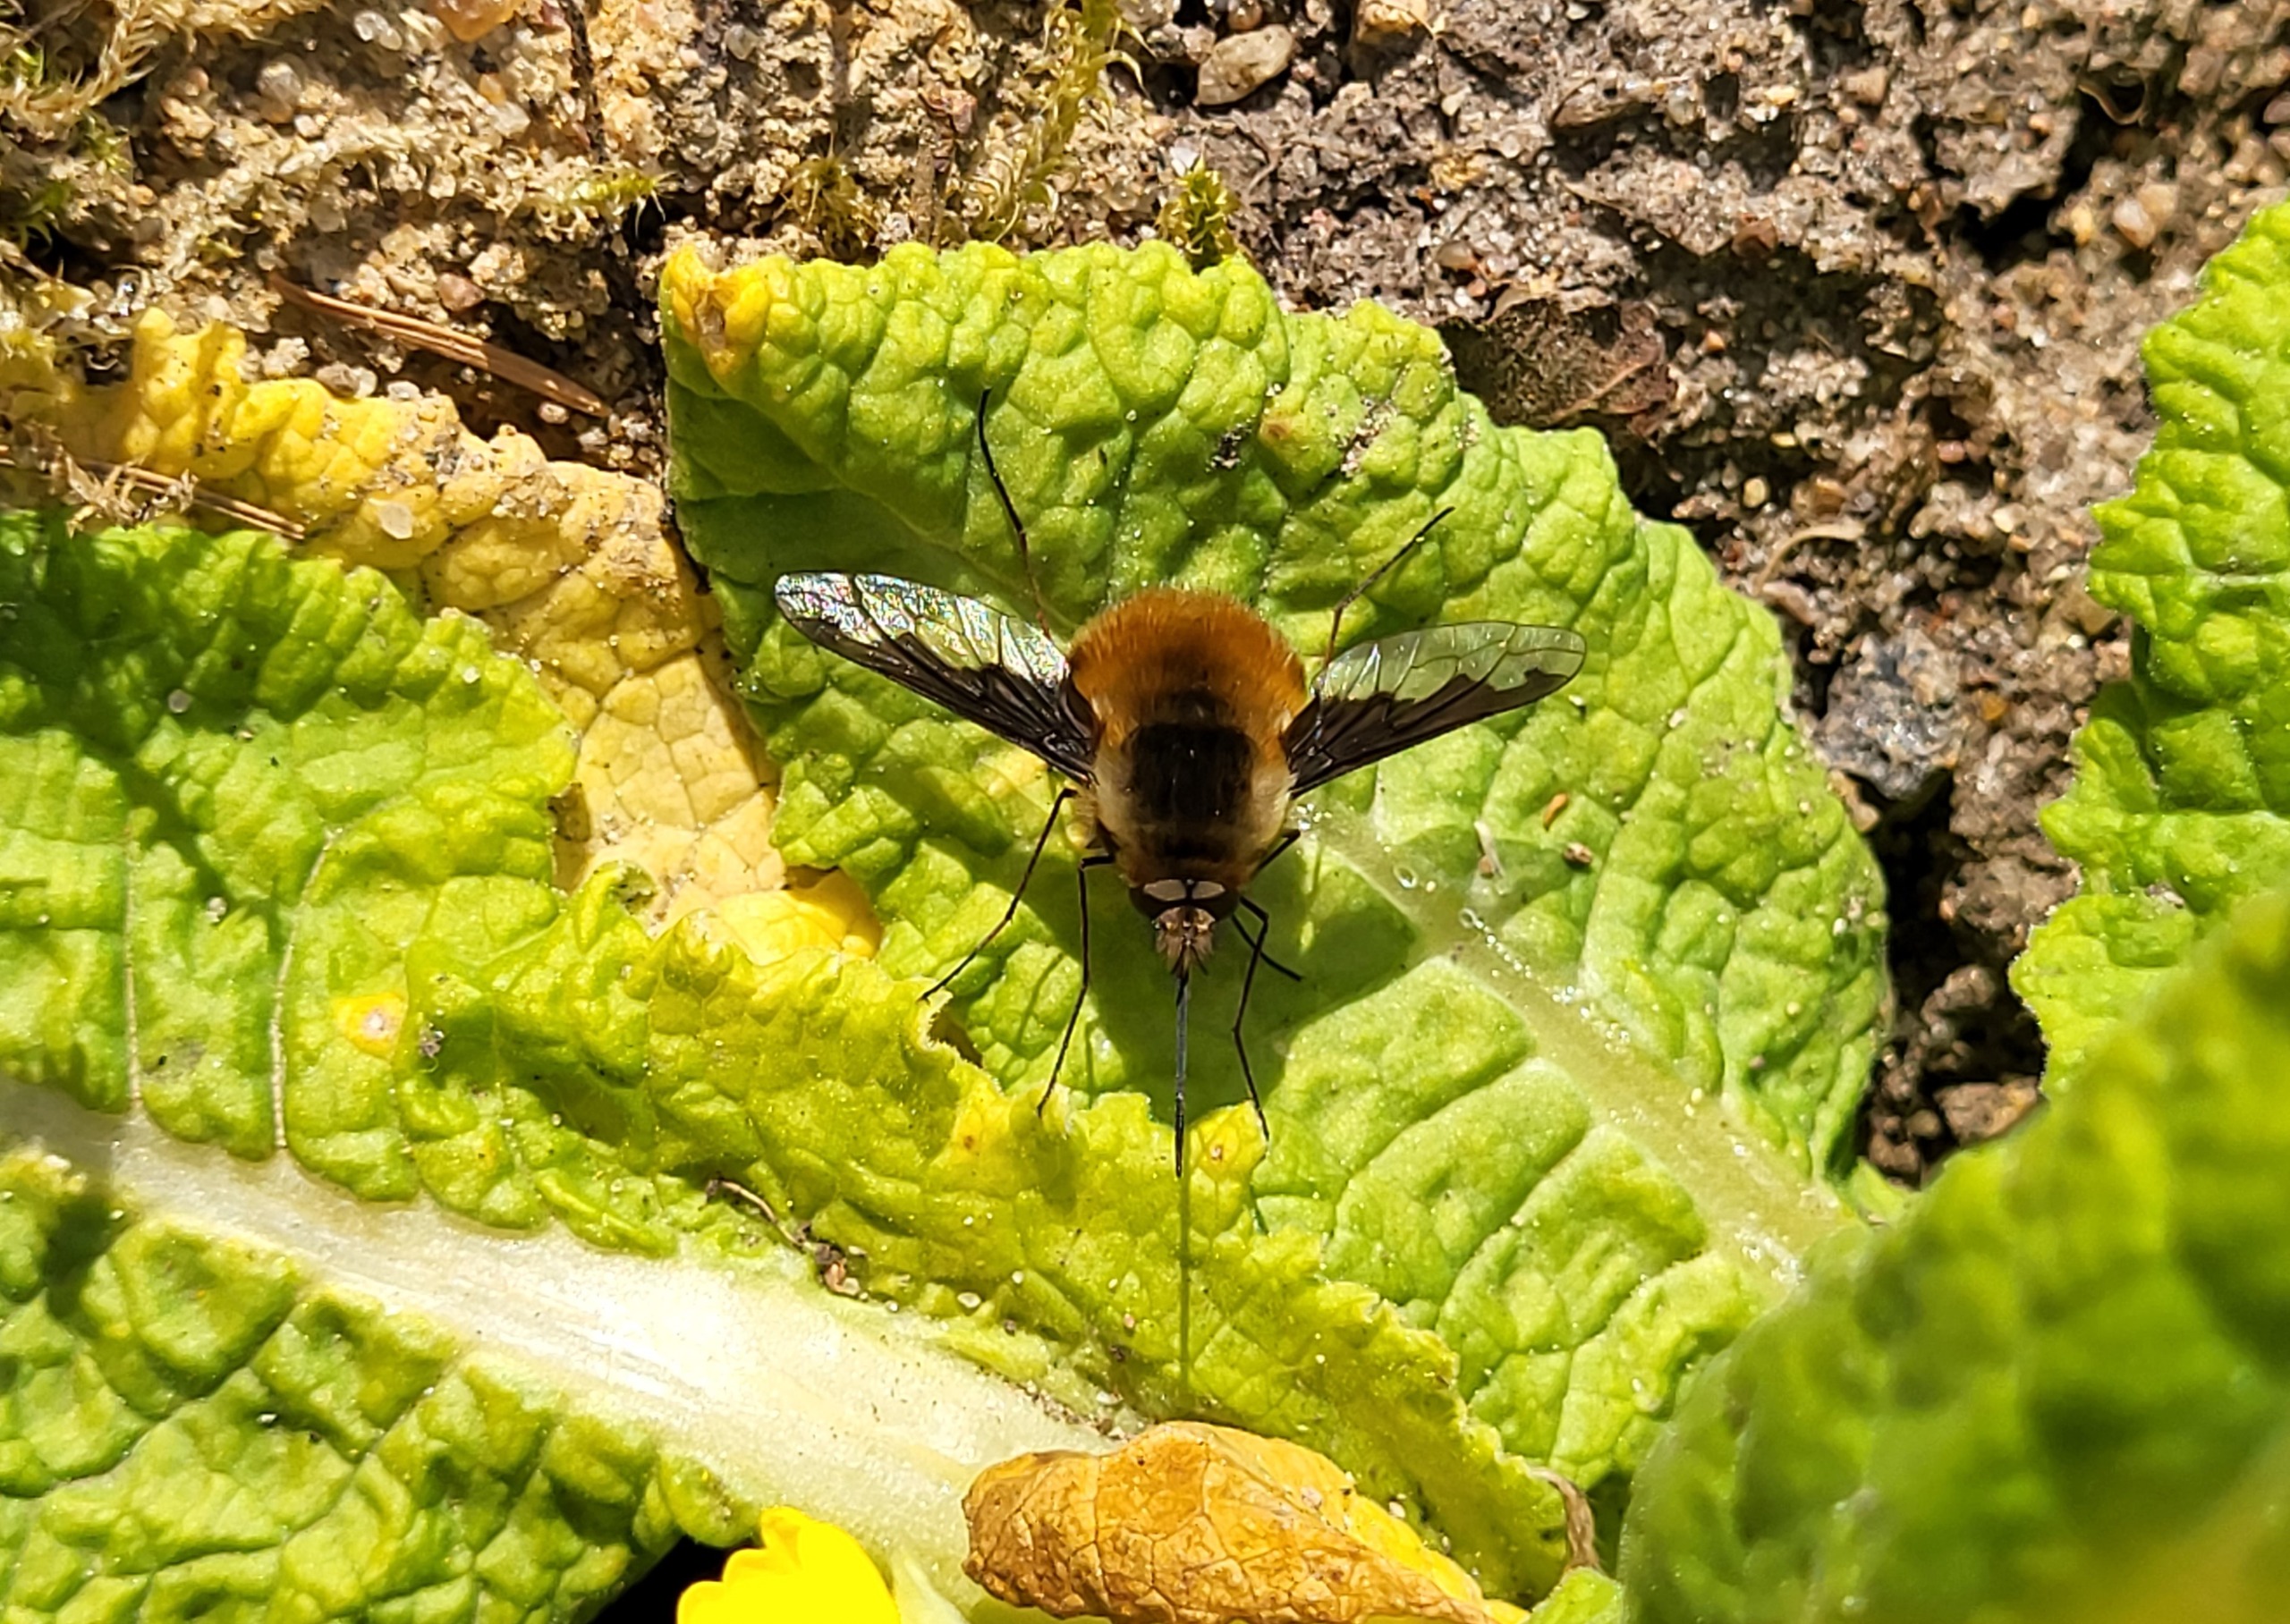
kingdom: Animalia
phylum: Arthropoda
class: Insecta
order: Diptera
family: Bombyliidae
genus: Bombylius
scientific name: Bombylius major
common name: Stor humleflue
